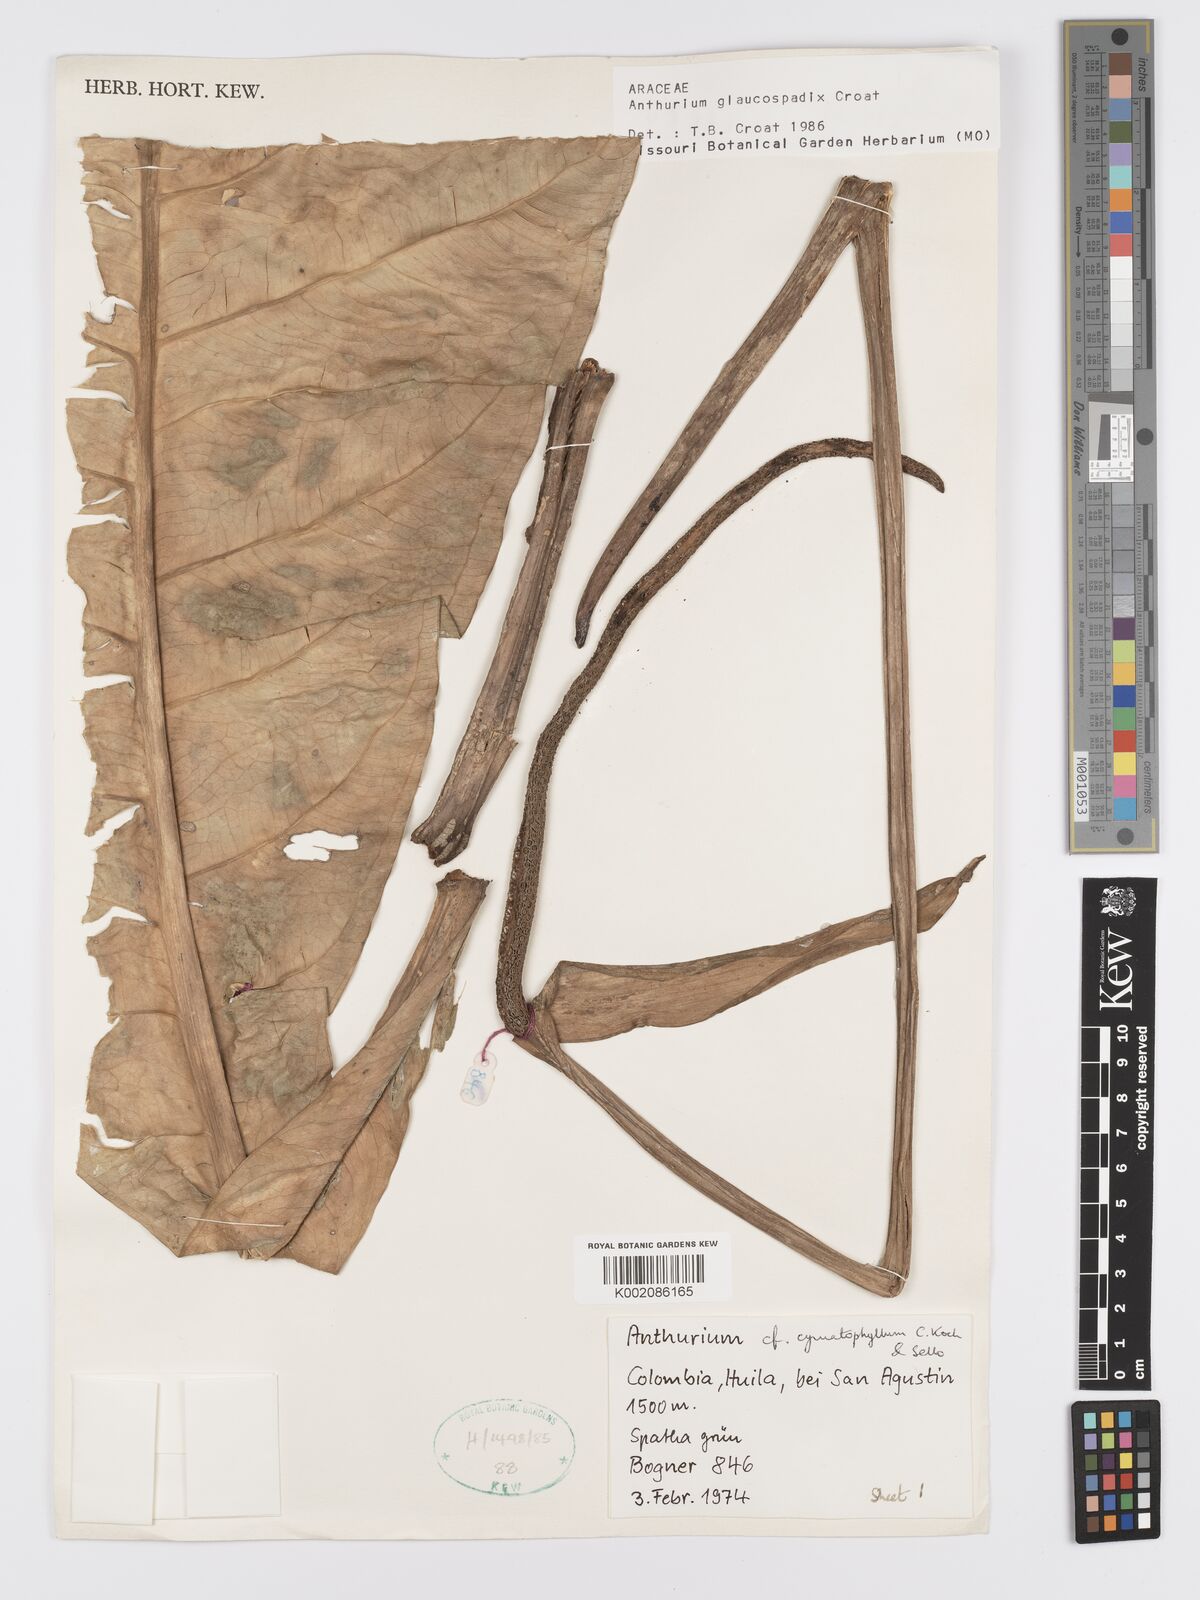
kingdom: Plantae
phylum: Tracheophyta
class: Liliopsida
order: Alismatales
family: Araceae
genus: Anthurium
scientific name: Anthurium glaucospadix
